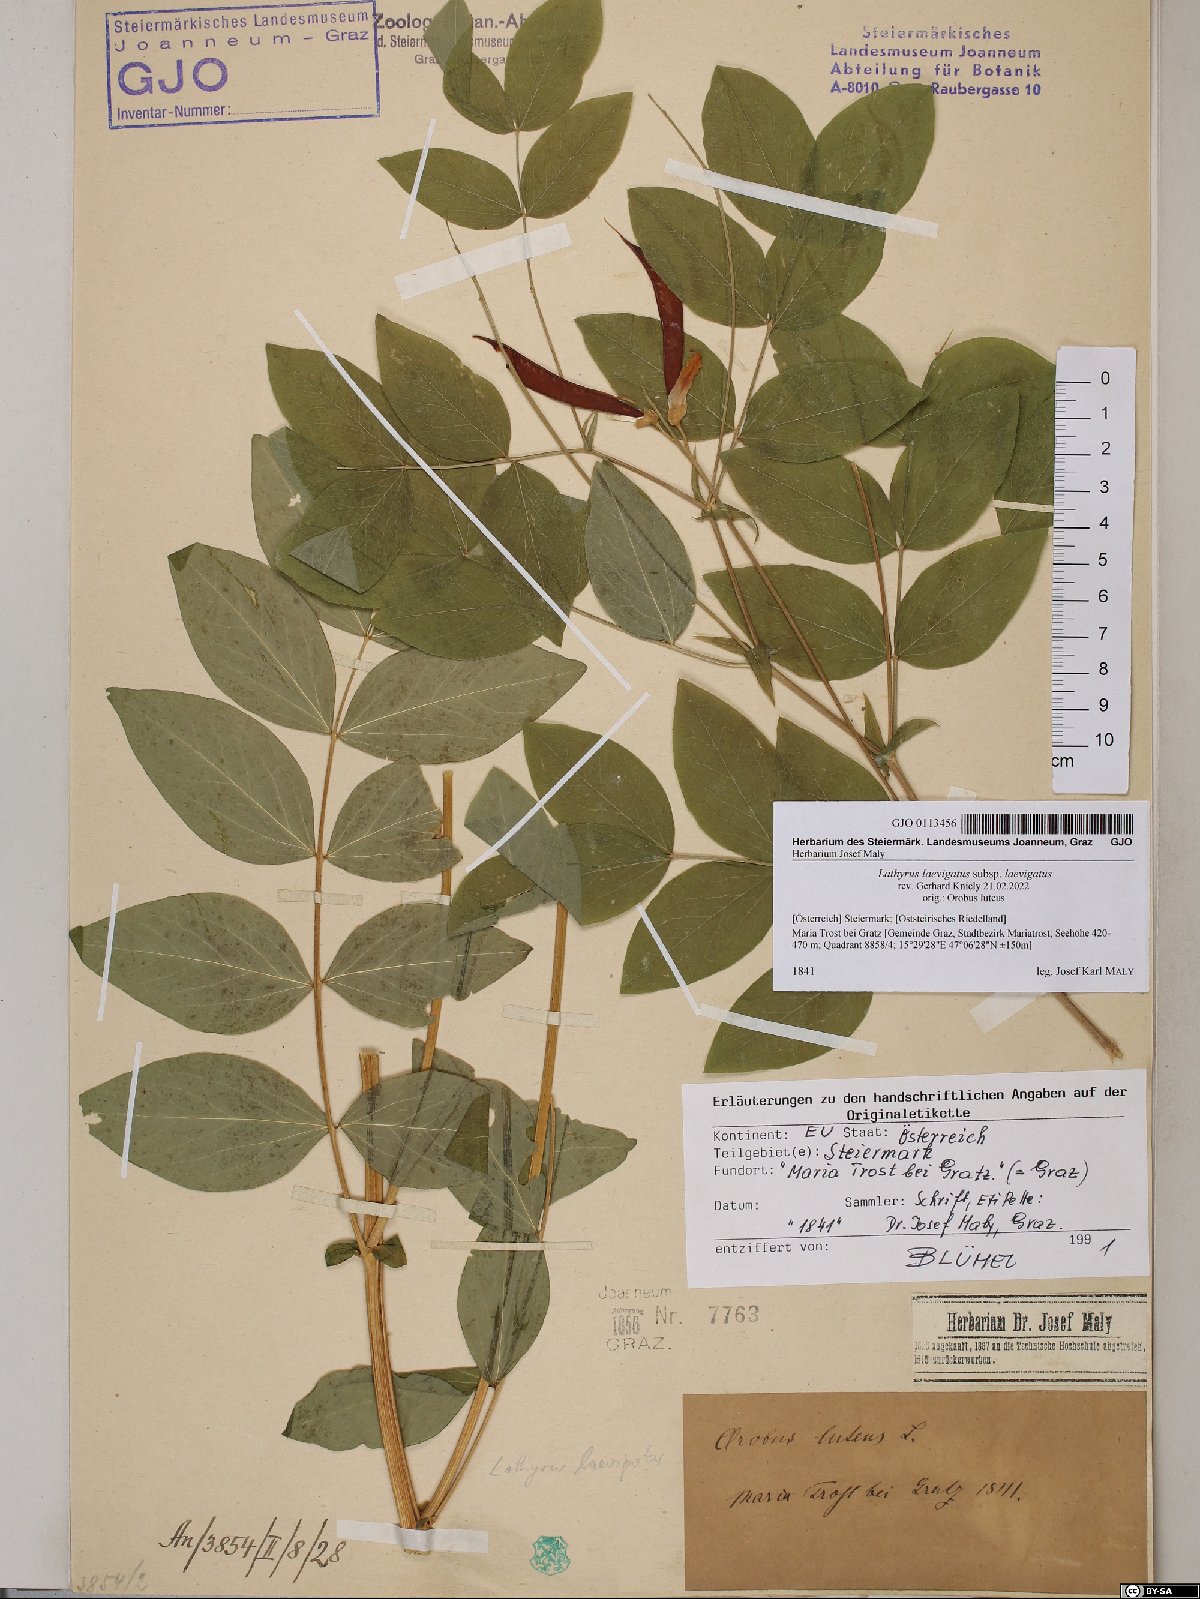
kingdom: Plantae
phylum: Tracheophyta
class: Magnoliopsida
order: Fabales
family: Fabaceae
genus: Lathyrus
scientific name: Lathyrus laevigatus
